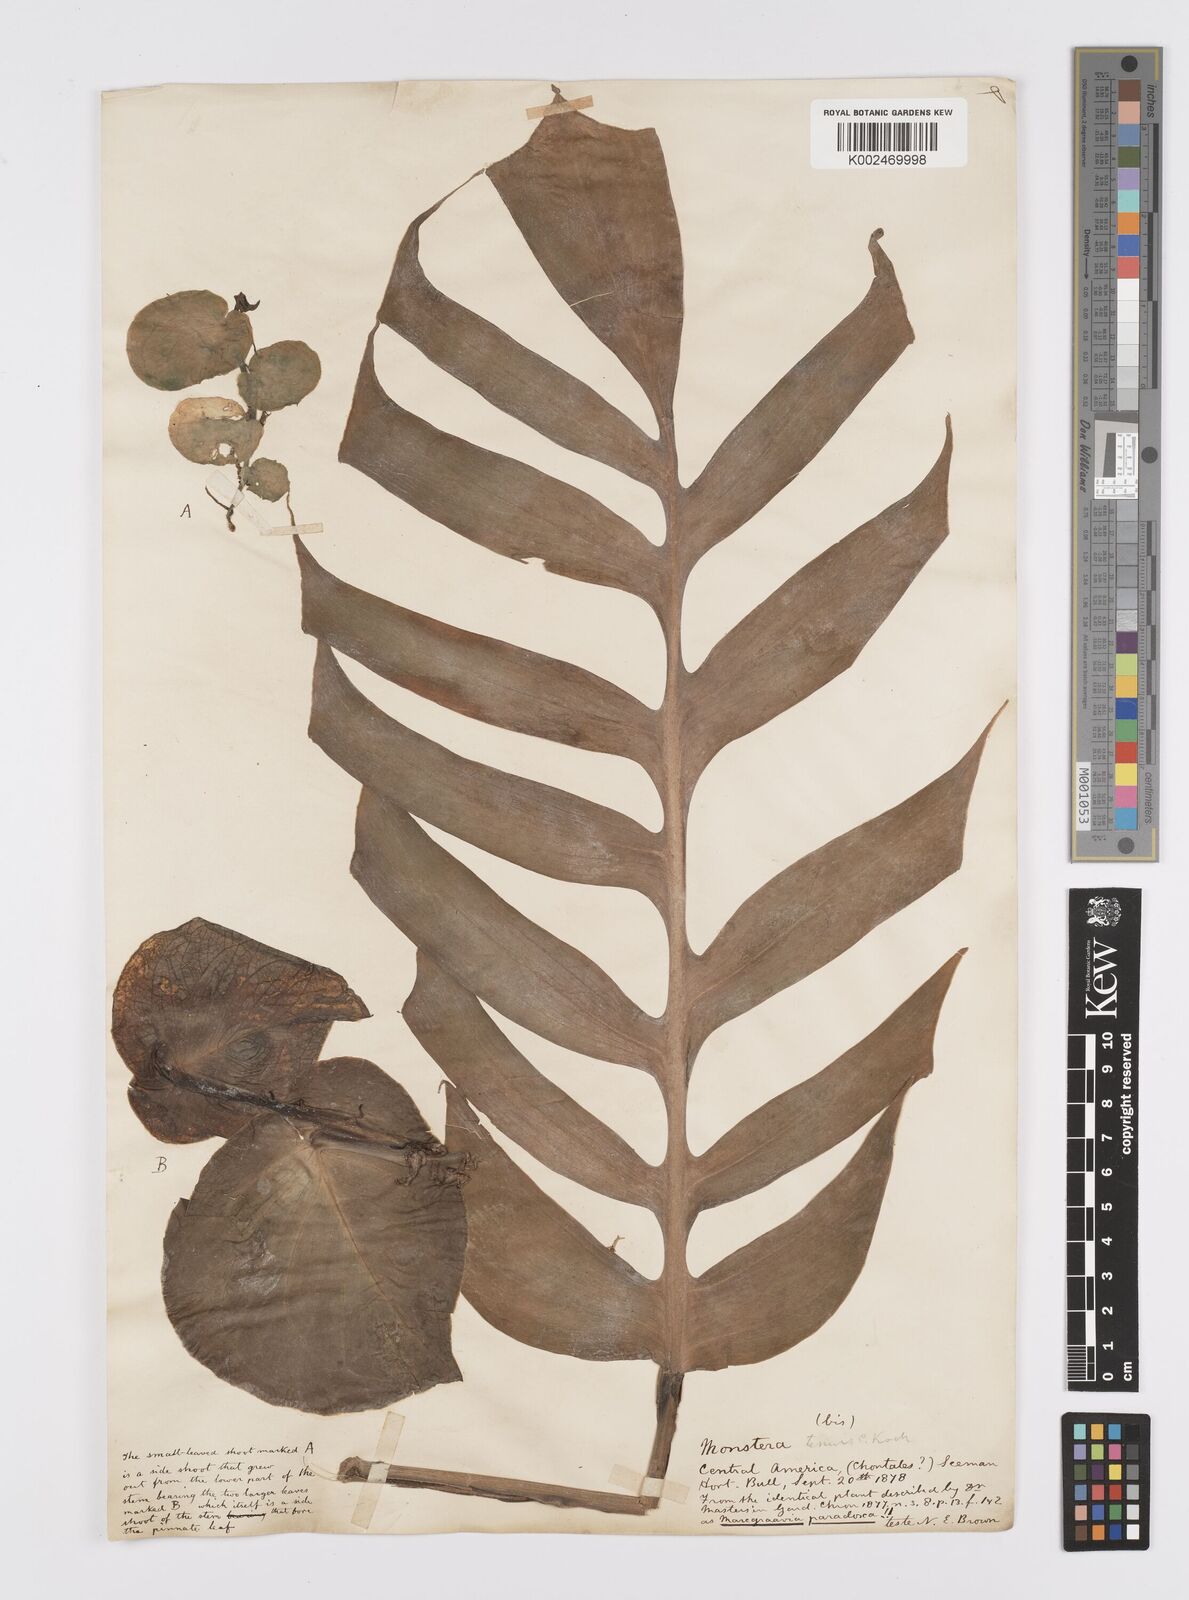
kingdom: Plantae
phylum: Tracheophyta
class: Liliopsida
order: Alismatales
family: Araceae
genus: Monstera
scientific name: Monstera tenuis
